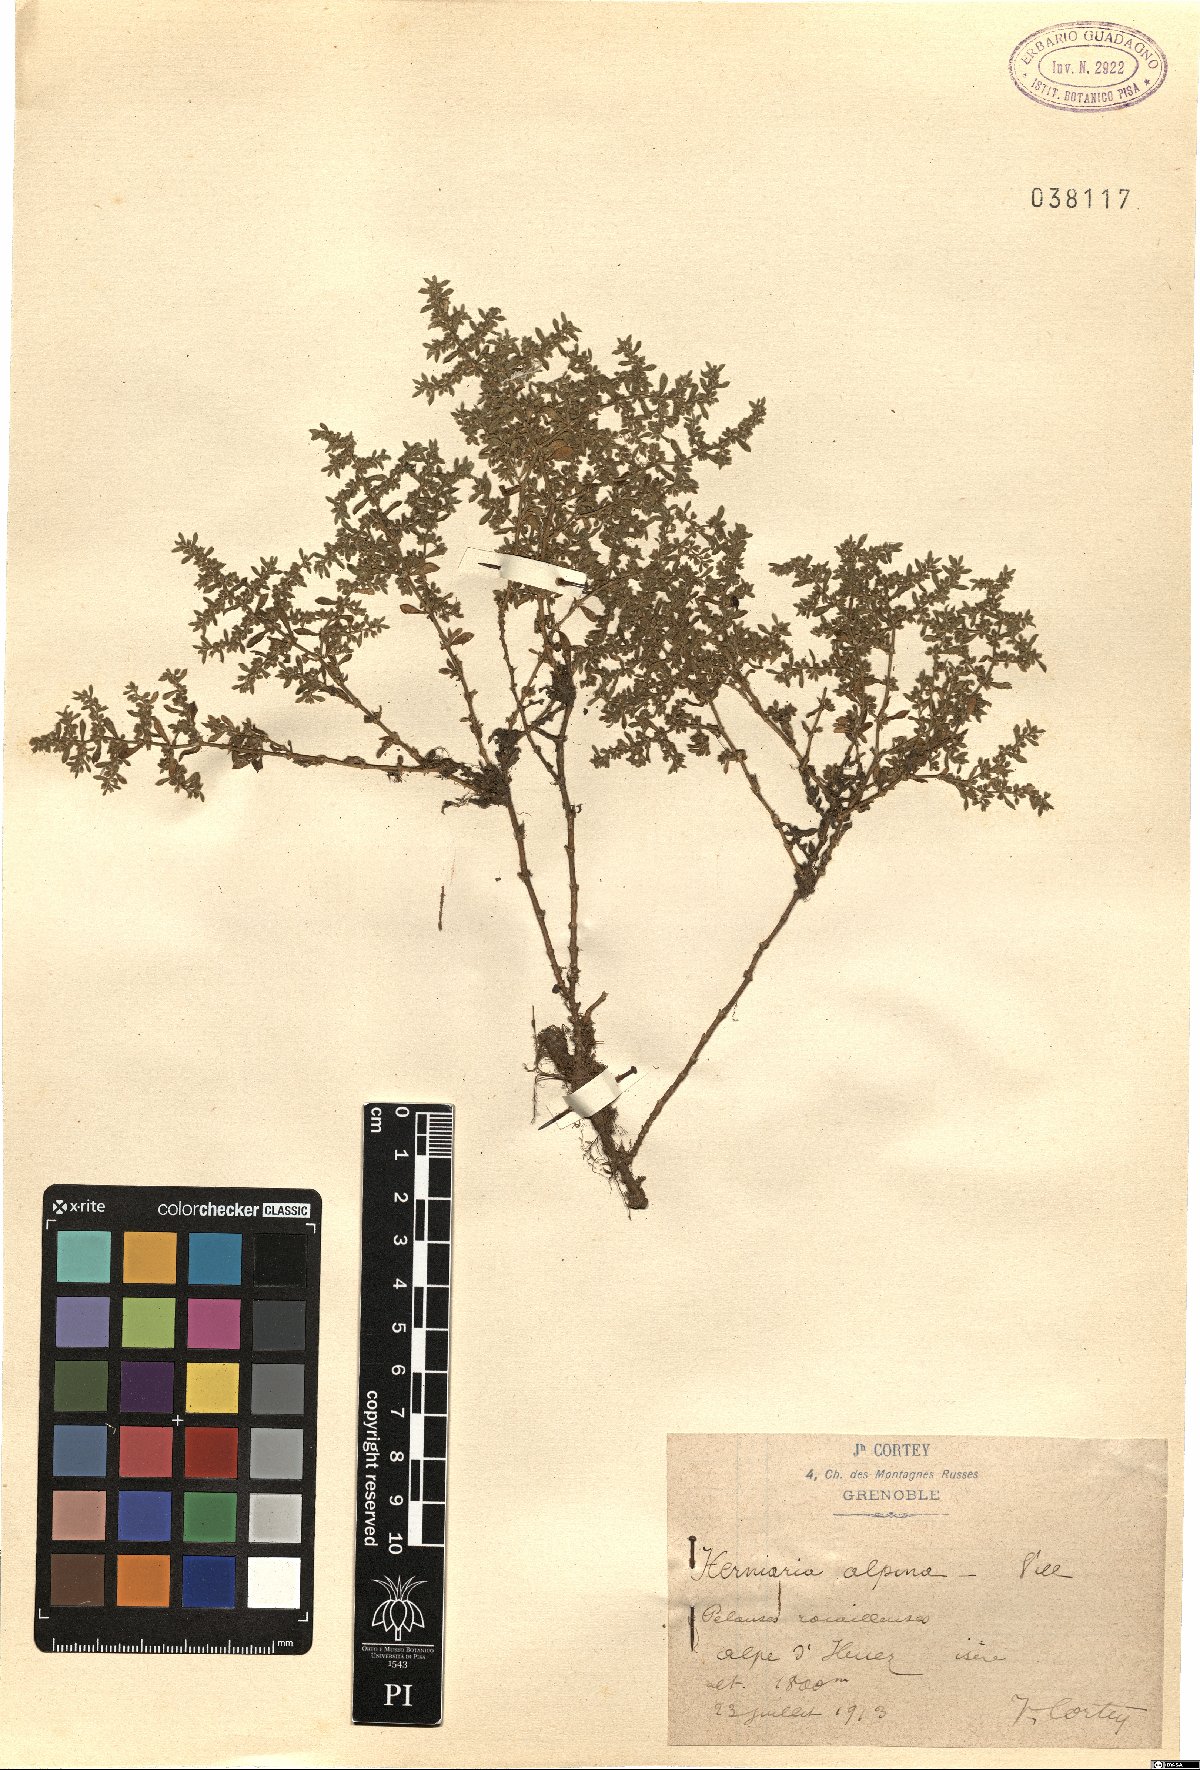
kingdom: Plantae
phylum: Tracheophyta
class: Magnoliopsida
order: Caryophyllales
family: Caryophyllaceae
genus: Herniaria
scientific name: Herniaria alpina
